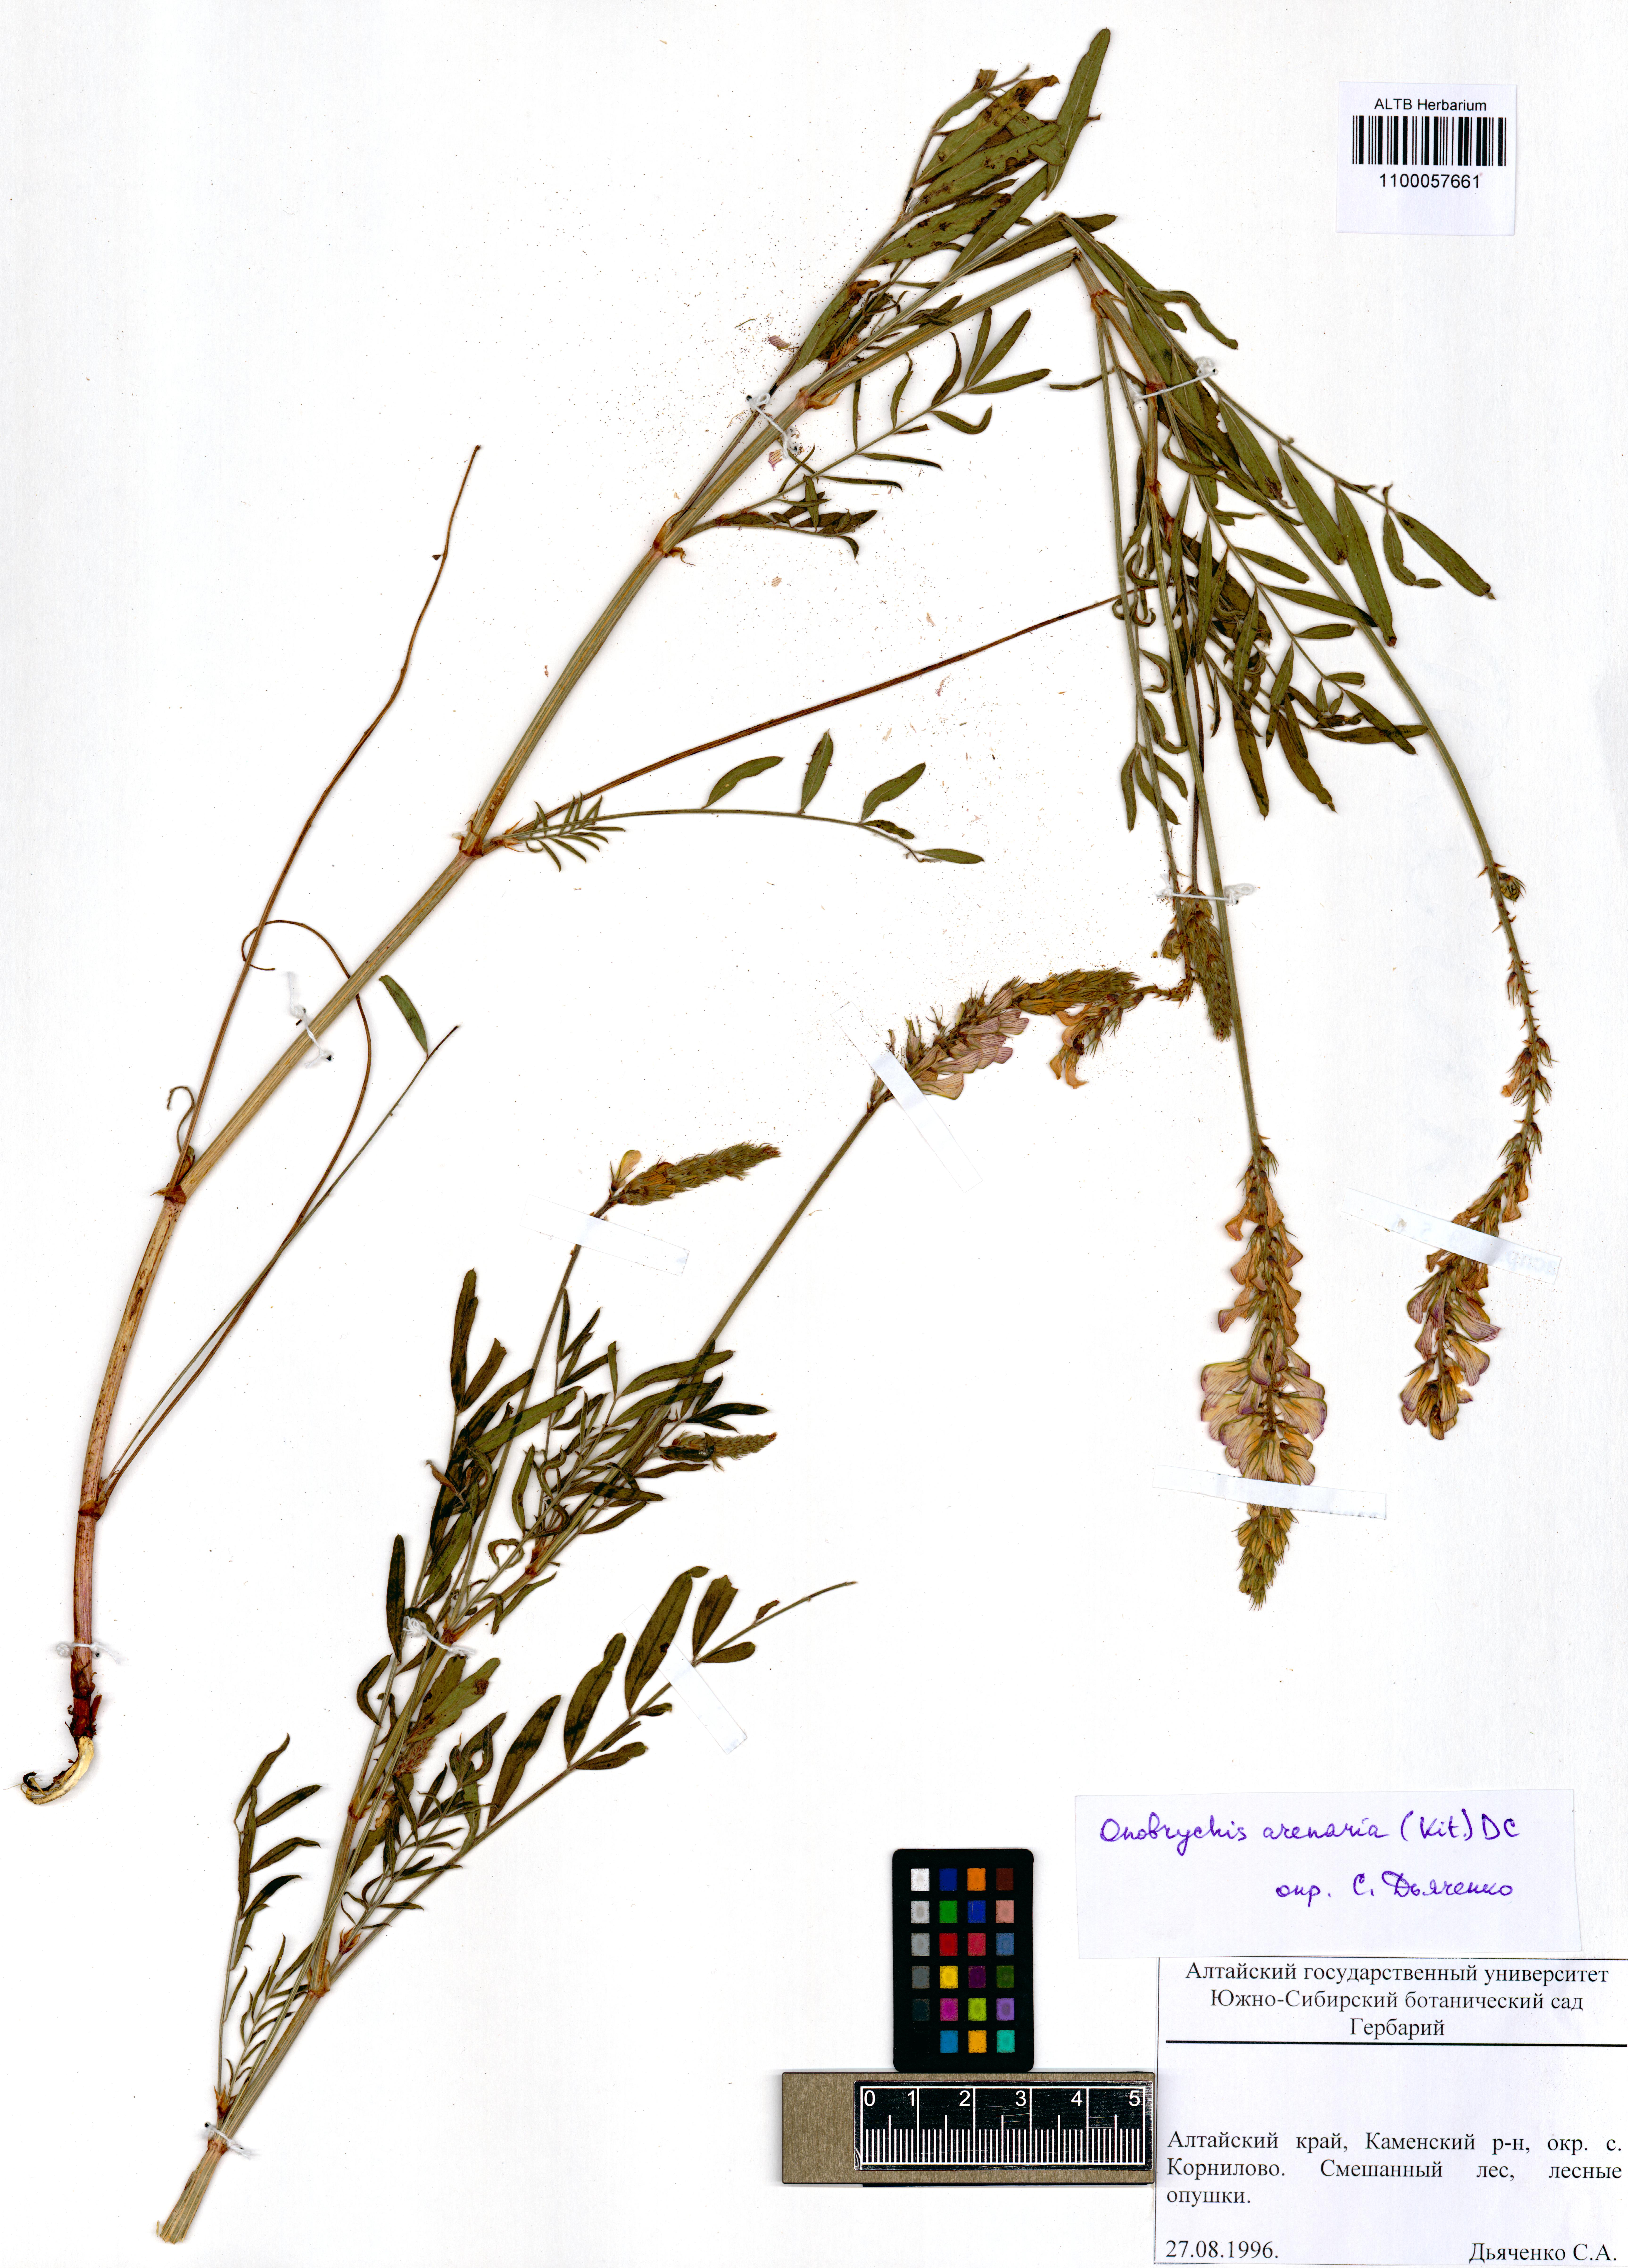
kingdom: Plantae
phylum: Tracheophyta
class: Magnoliopsida
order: Fabales
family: Fabaceae
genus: Onobrychis
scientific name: Onobrychis arenaria
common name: Sand esparcet
